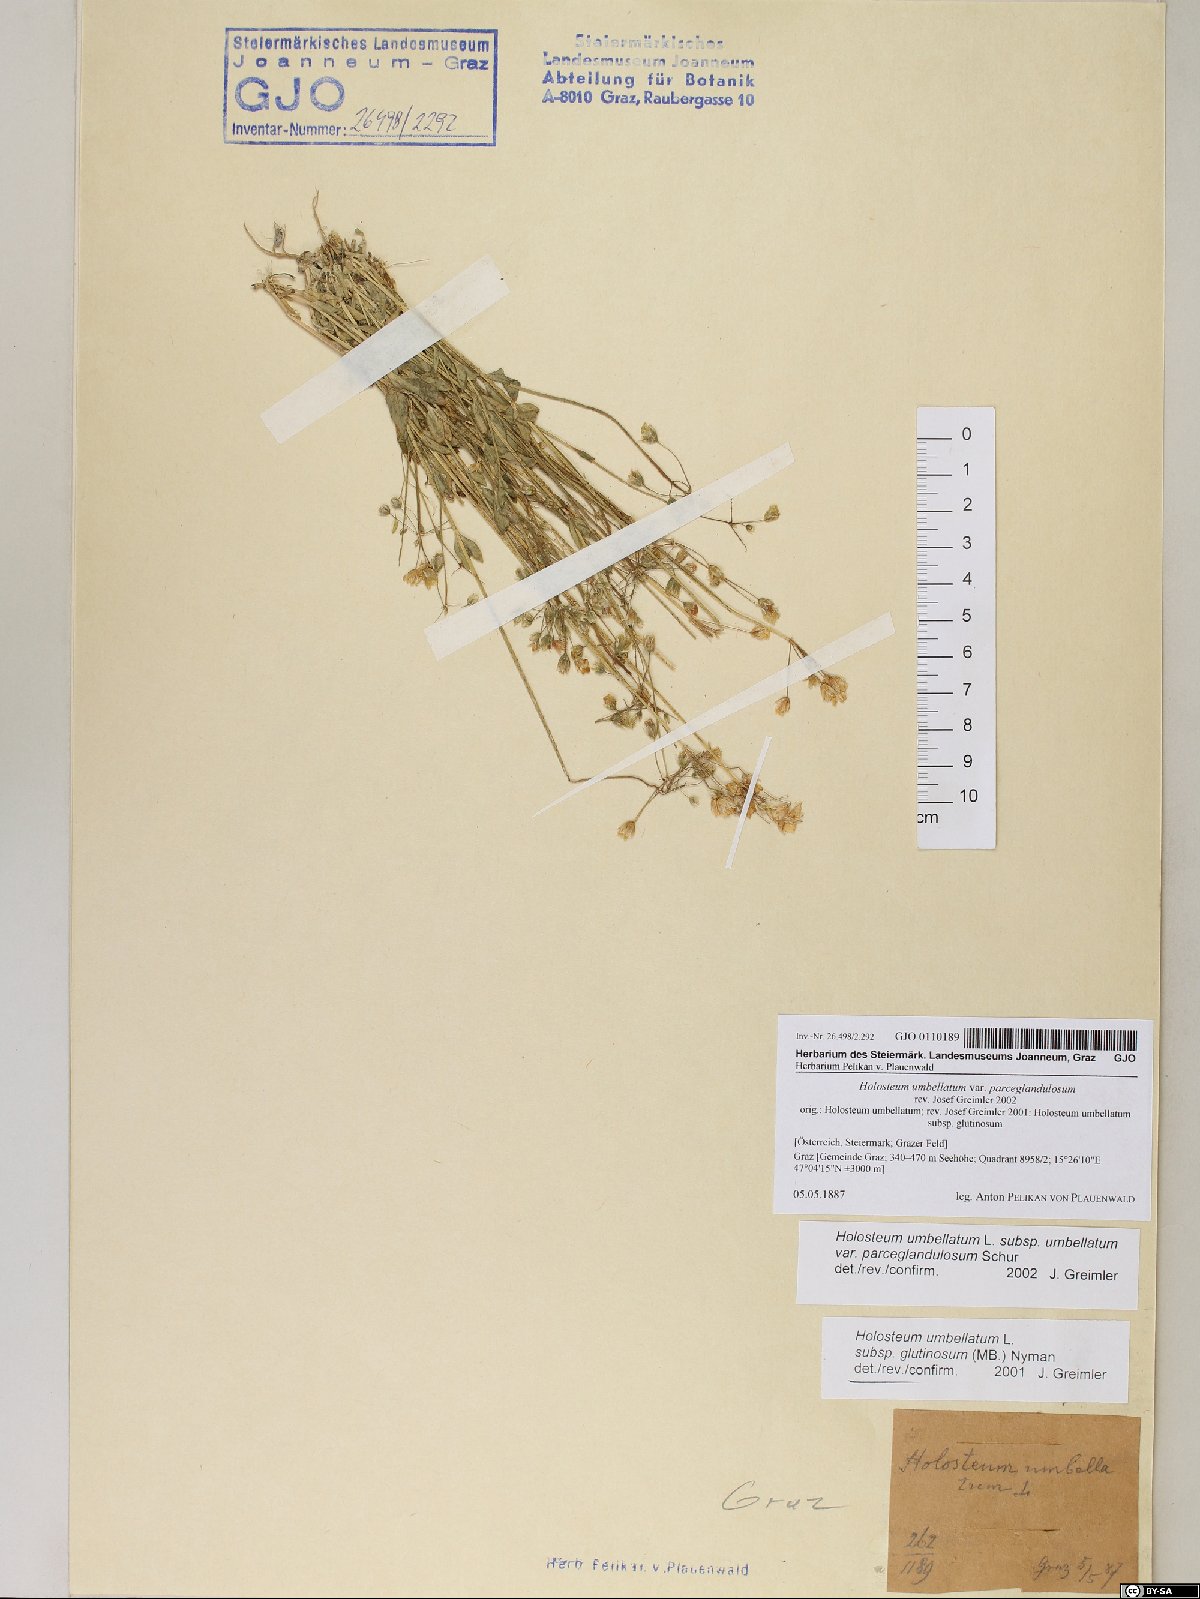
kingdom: Plantae
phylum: Tracheophyta
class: Magnoliopsida
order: Caryophyllales
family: Caryophyllaceae
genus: Holosteum
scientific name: Holosteum umbellatum
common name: Jagged chickweed
